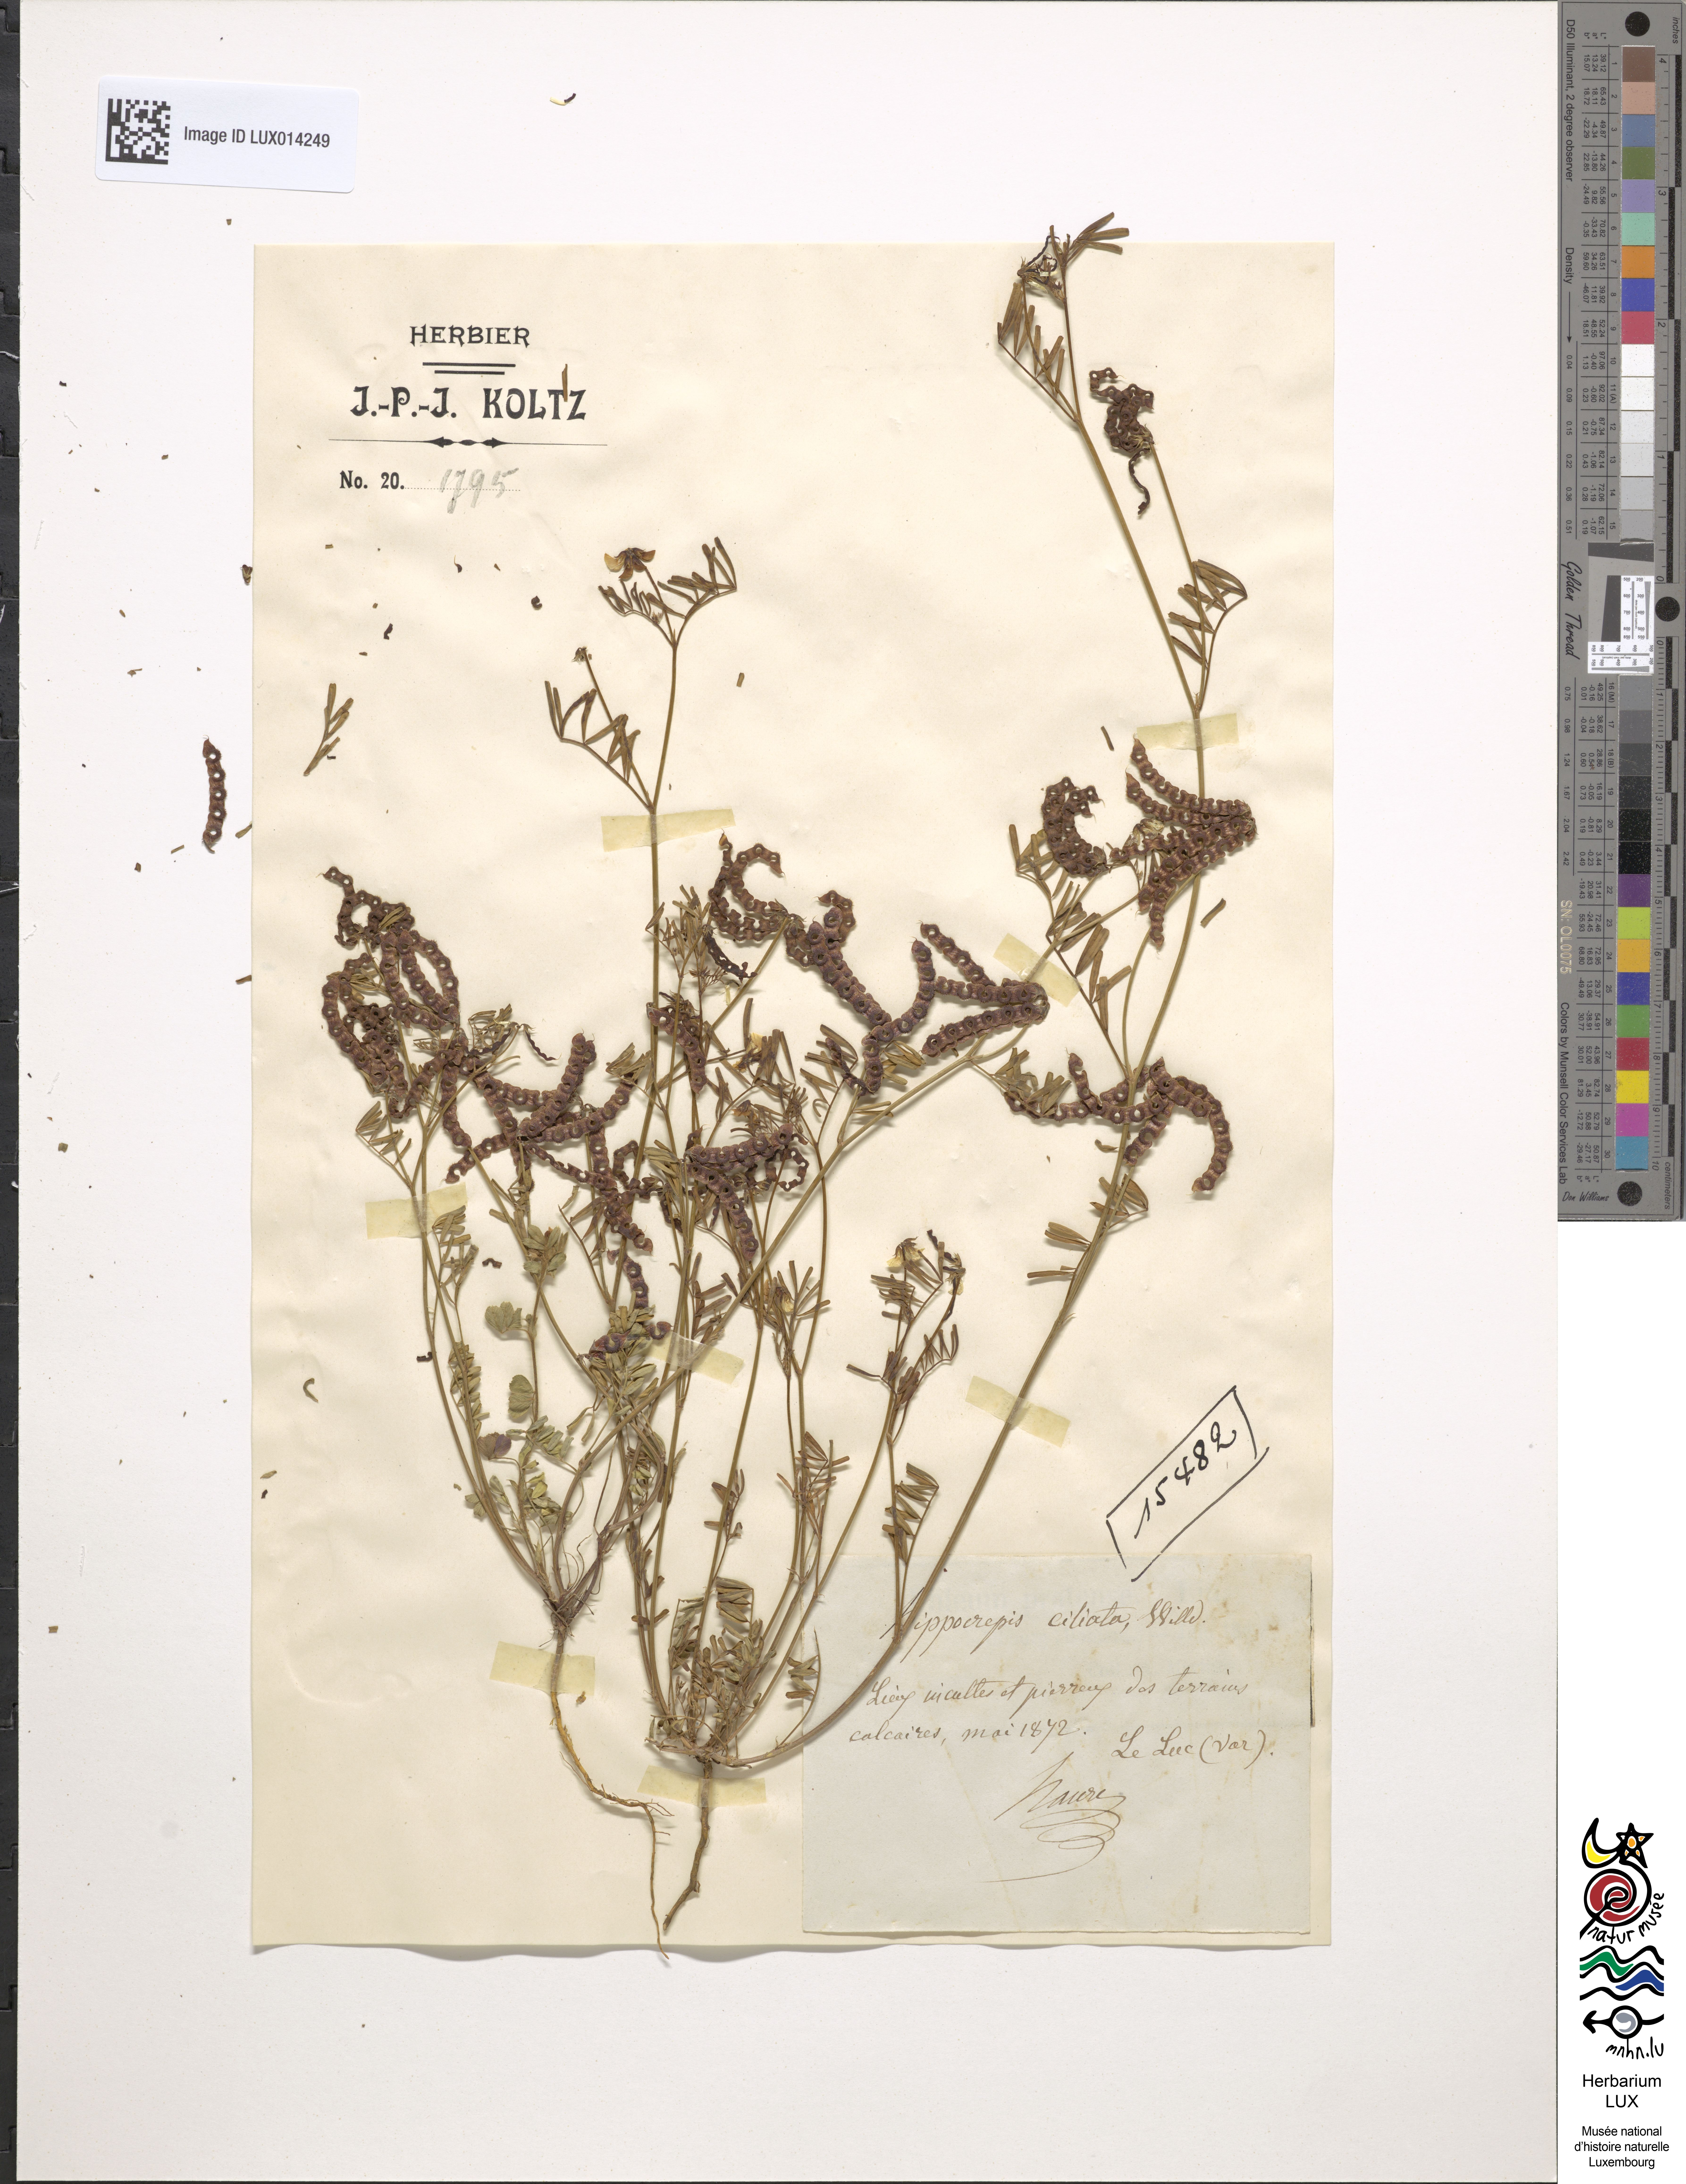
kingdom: Plantae
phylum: Tracheophyta
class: Magnoliopsida
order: Fabales
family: Fabaceae
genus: Hippocrepis
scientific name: Hippocrepis ciliata
